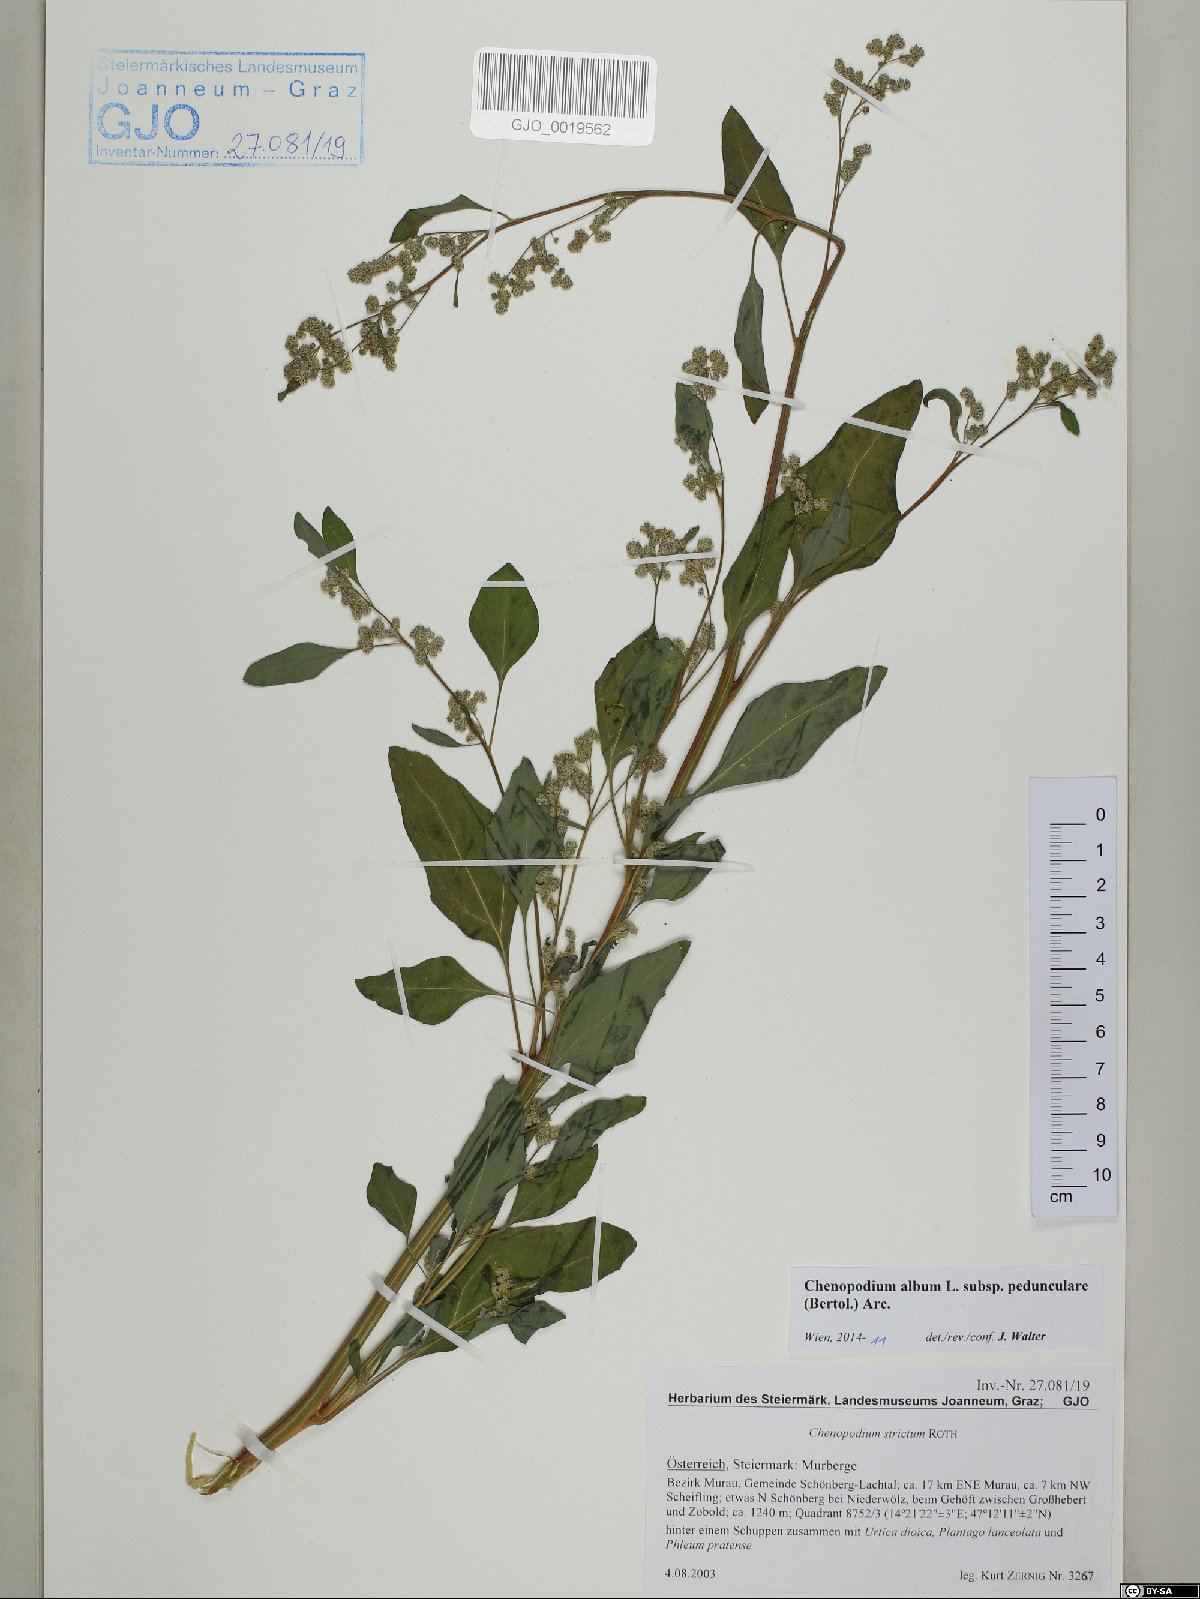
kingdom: Plantae
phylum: Tracheophyta
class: Magnoliopsida
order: Caryophyllales
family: Amaranthaceae
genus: Chenopodium
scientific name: Chenopodium album
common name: Fat-hen
